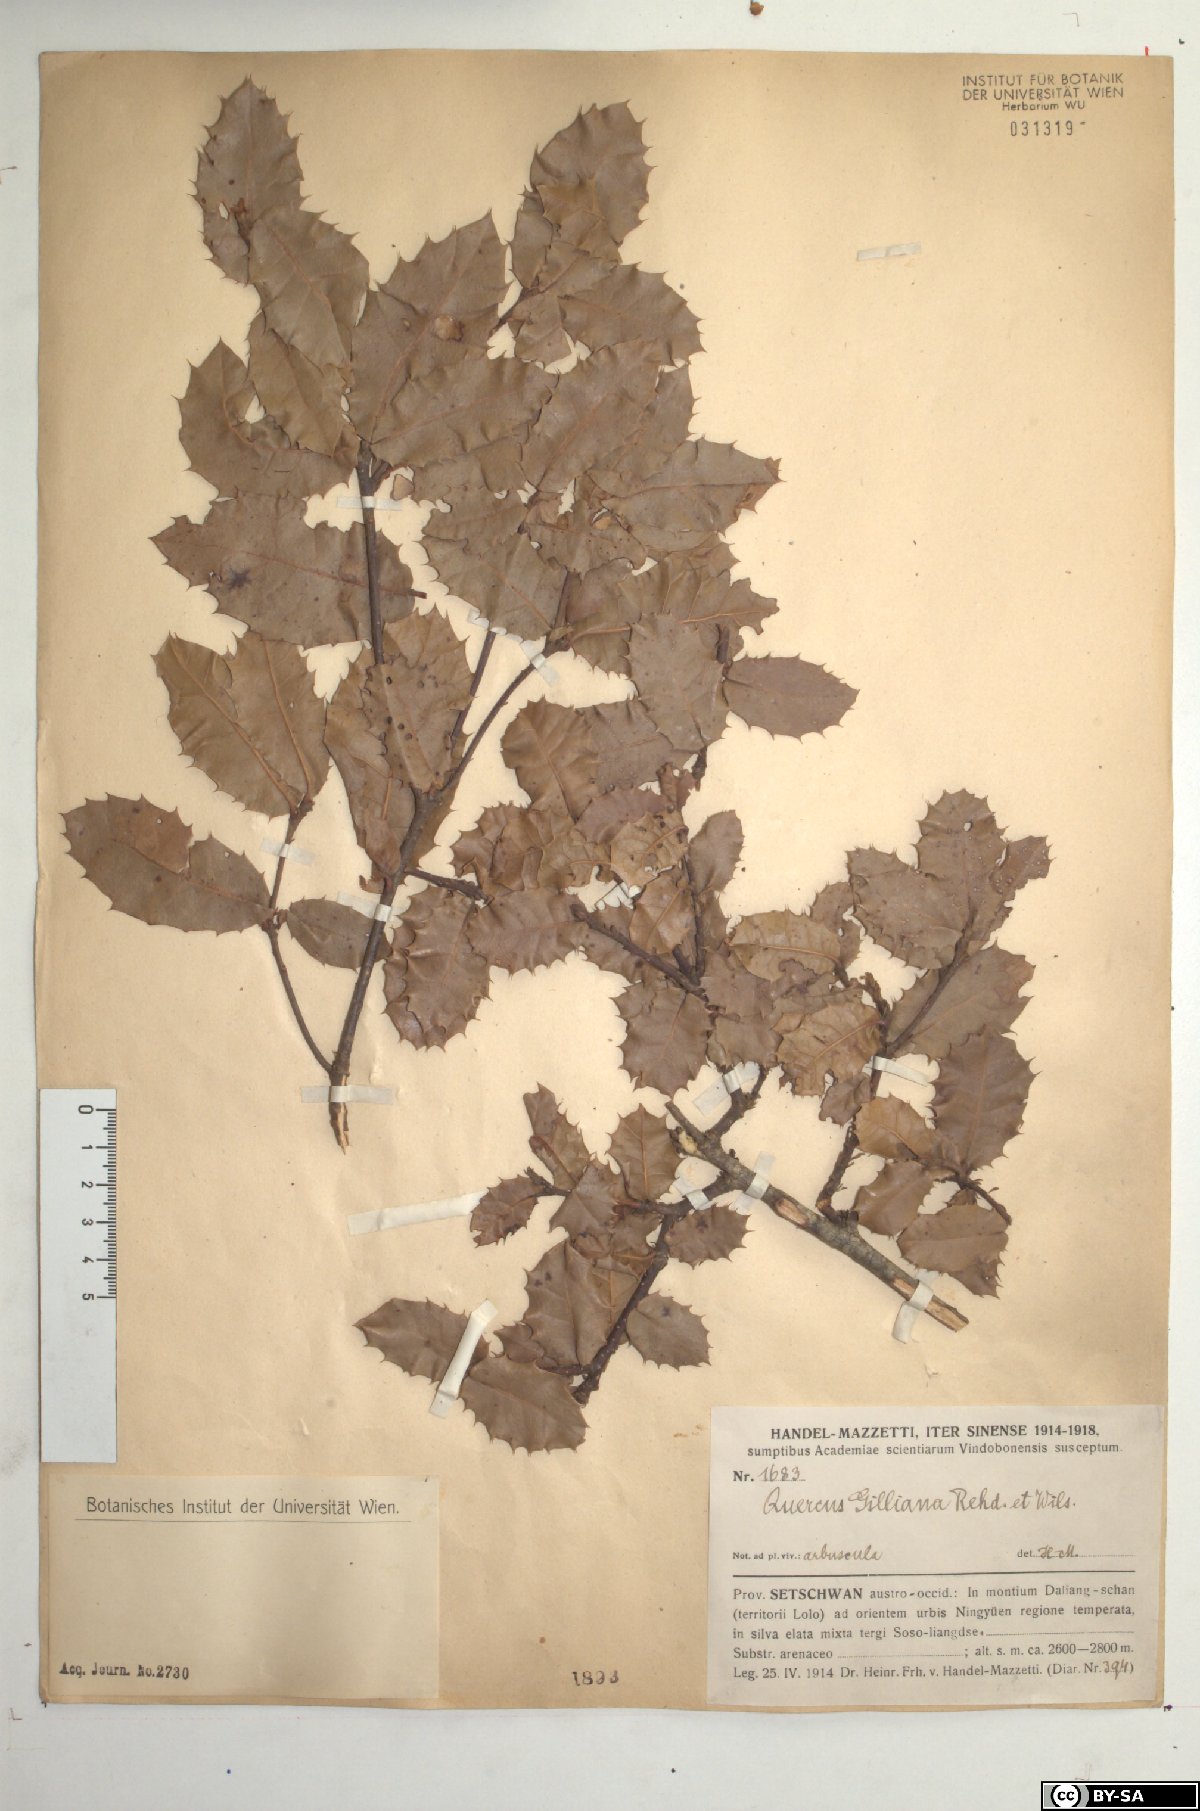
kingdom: Plantae
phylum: Tracheophyta
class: Magnoliopsida
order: Fagales
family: Fagaceae
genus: Quercus
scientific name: Quercus spinosa
